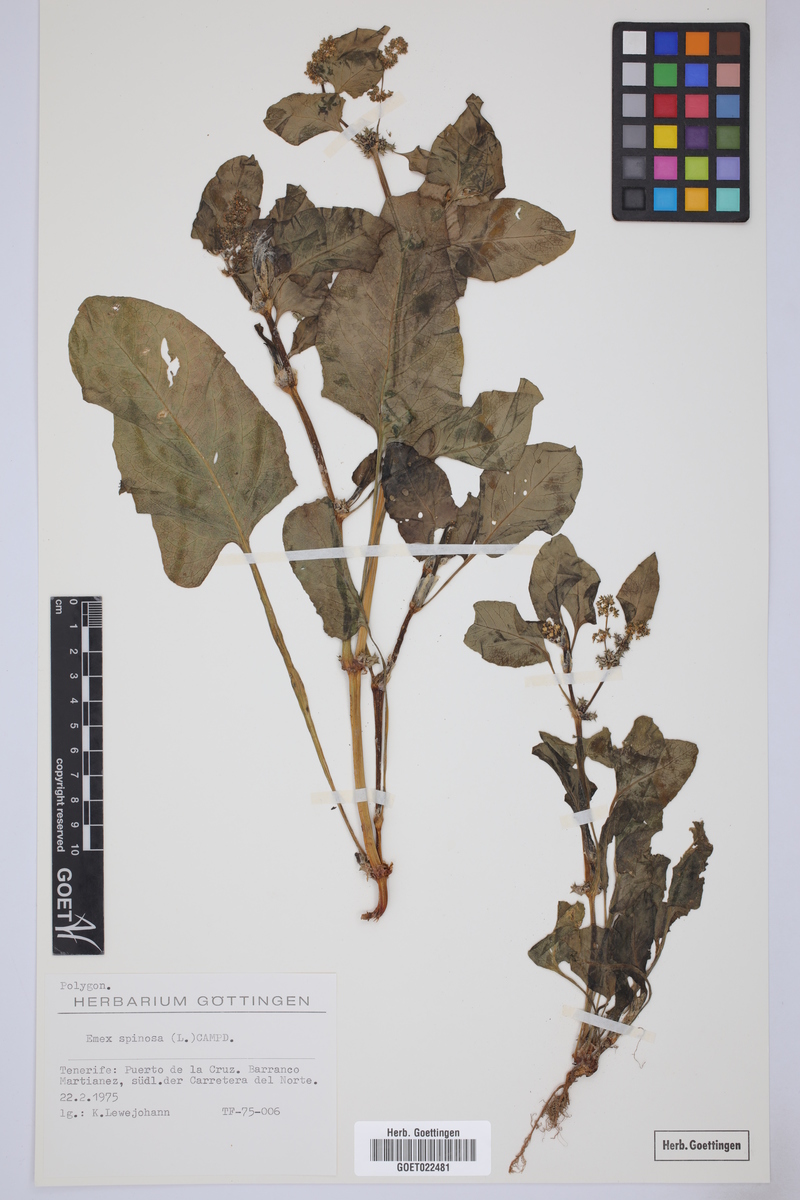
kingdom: Plantae
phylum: Tracheophyta
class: Magnoliopsida
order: Caryophyllales
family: Polygonaceae
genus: Rumex
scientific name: Rumex spinosus
